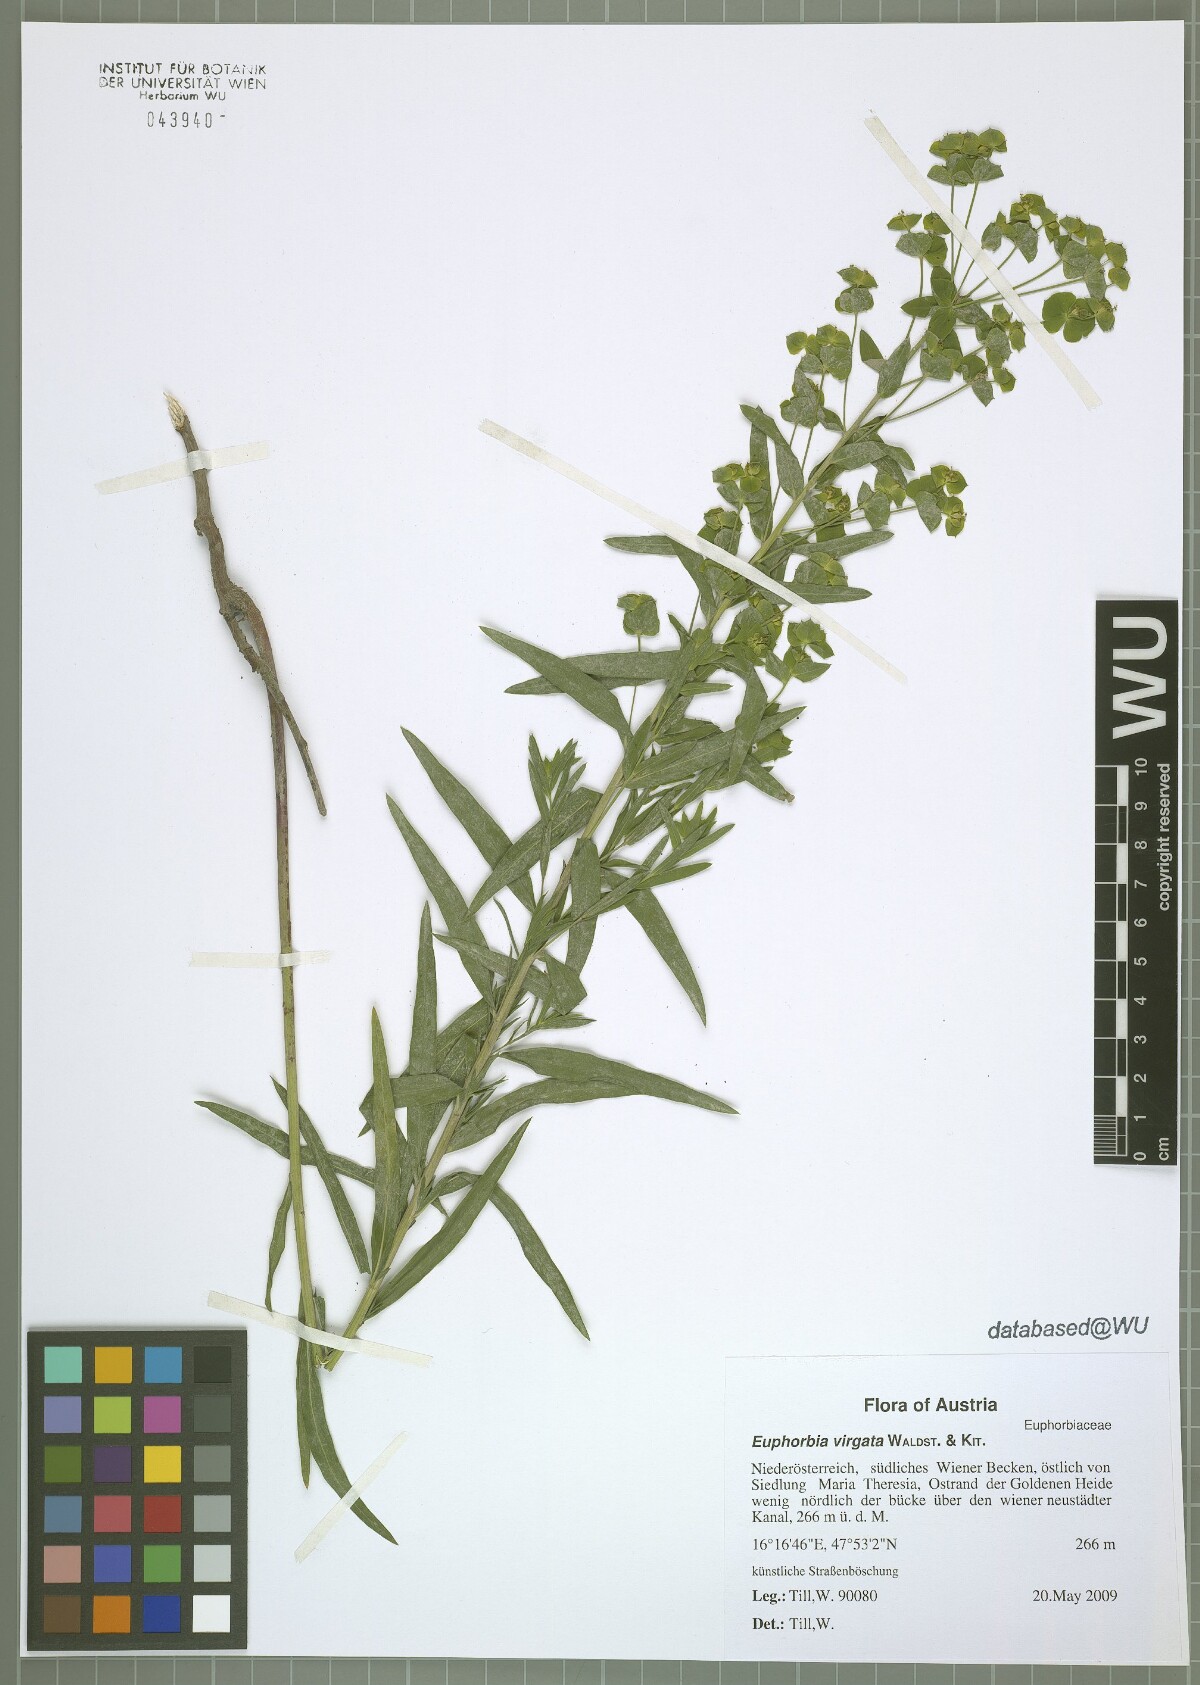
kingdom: Plantae
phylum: Tracheophyta
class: Magnoliopsida
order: Malpighiales
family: Euphorbiaceae
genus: Euphorbia
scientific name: Euphorbia virgata
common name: Leafy spurge
